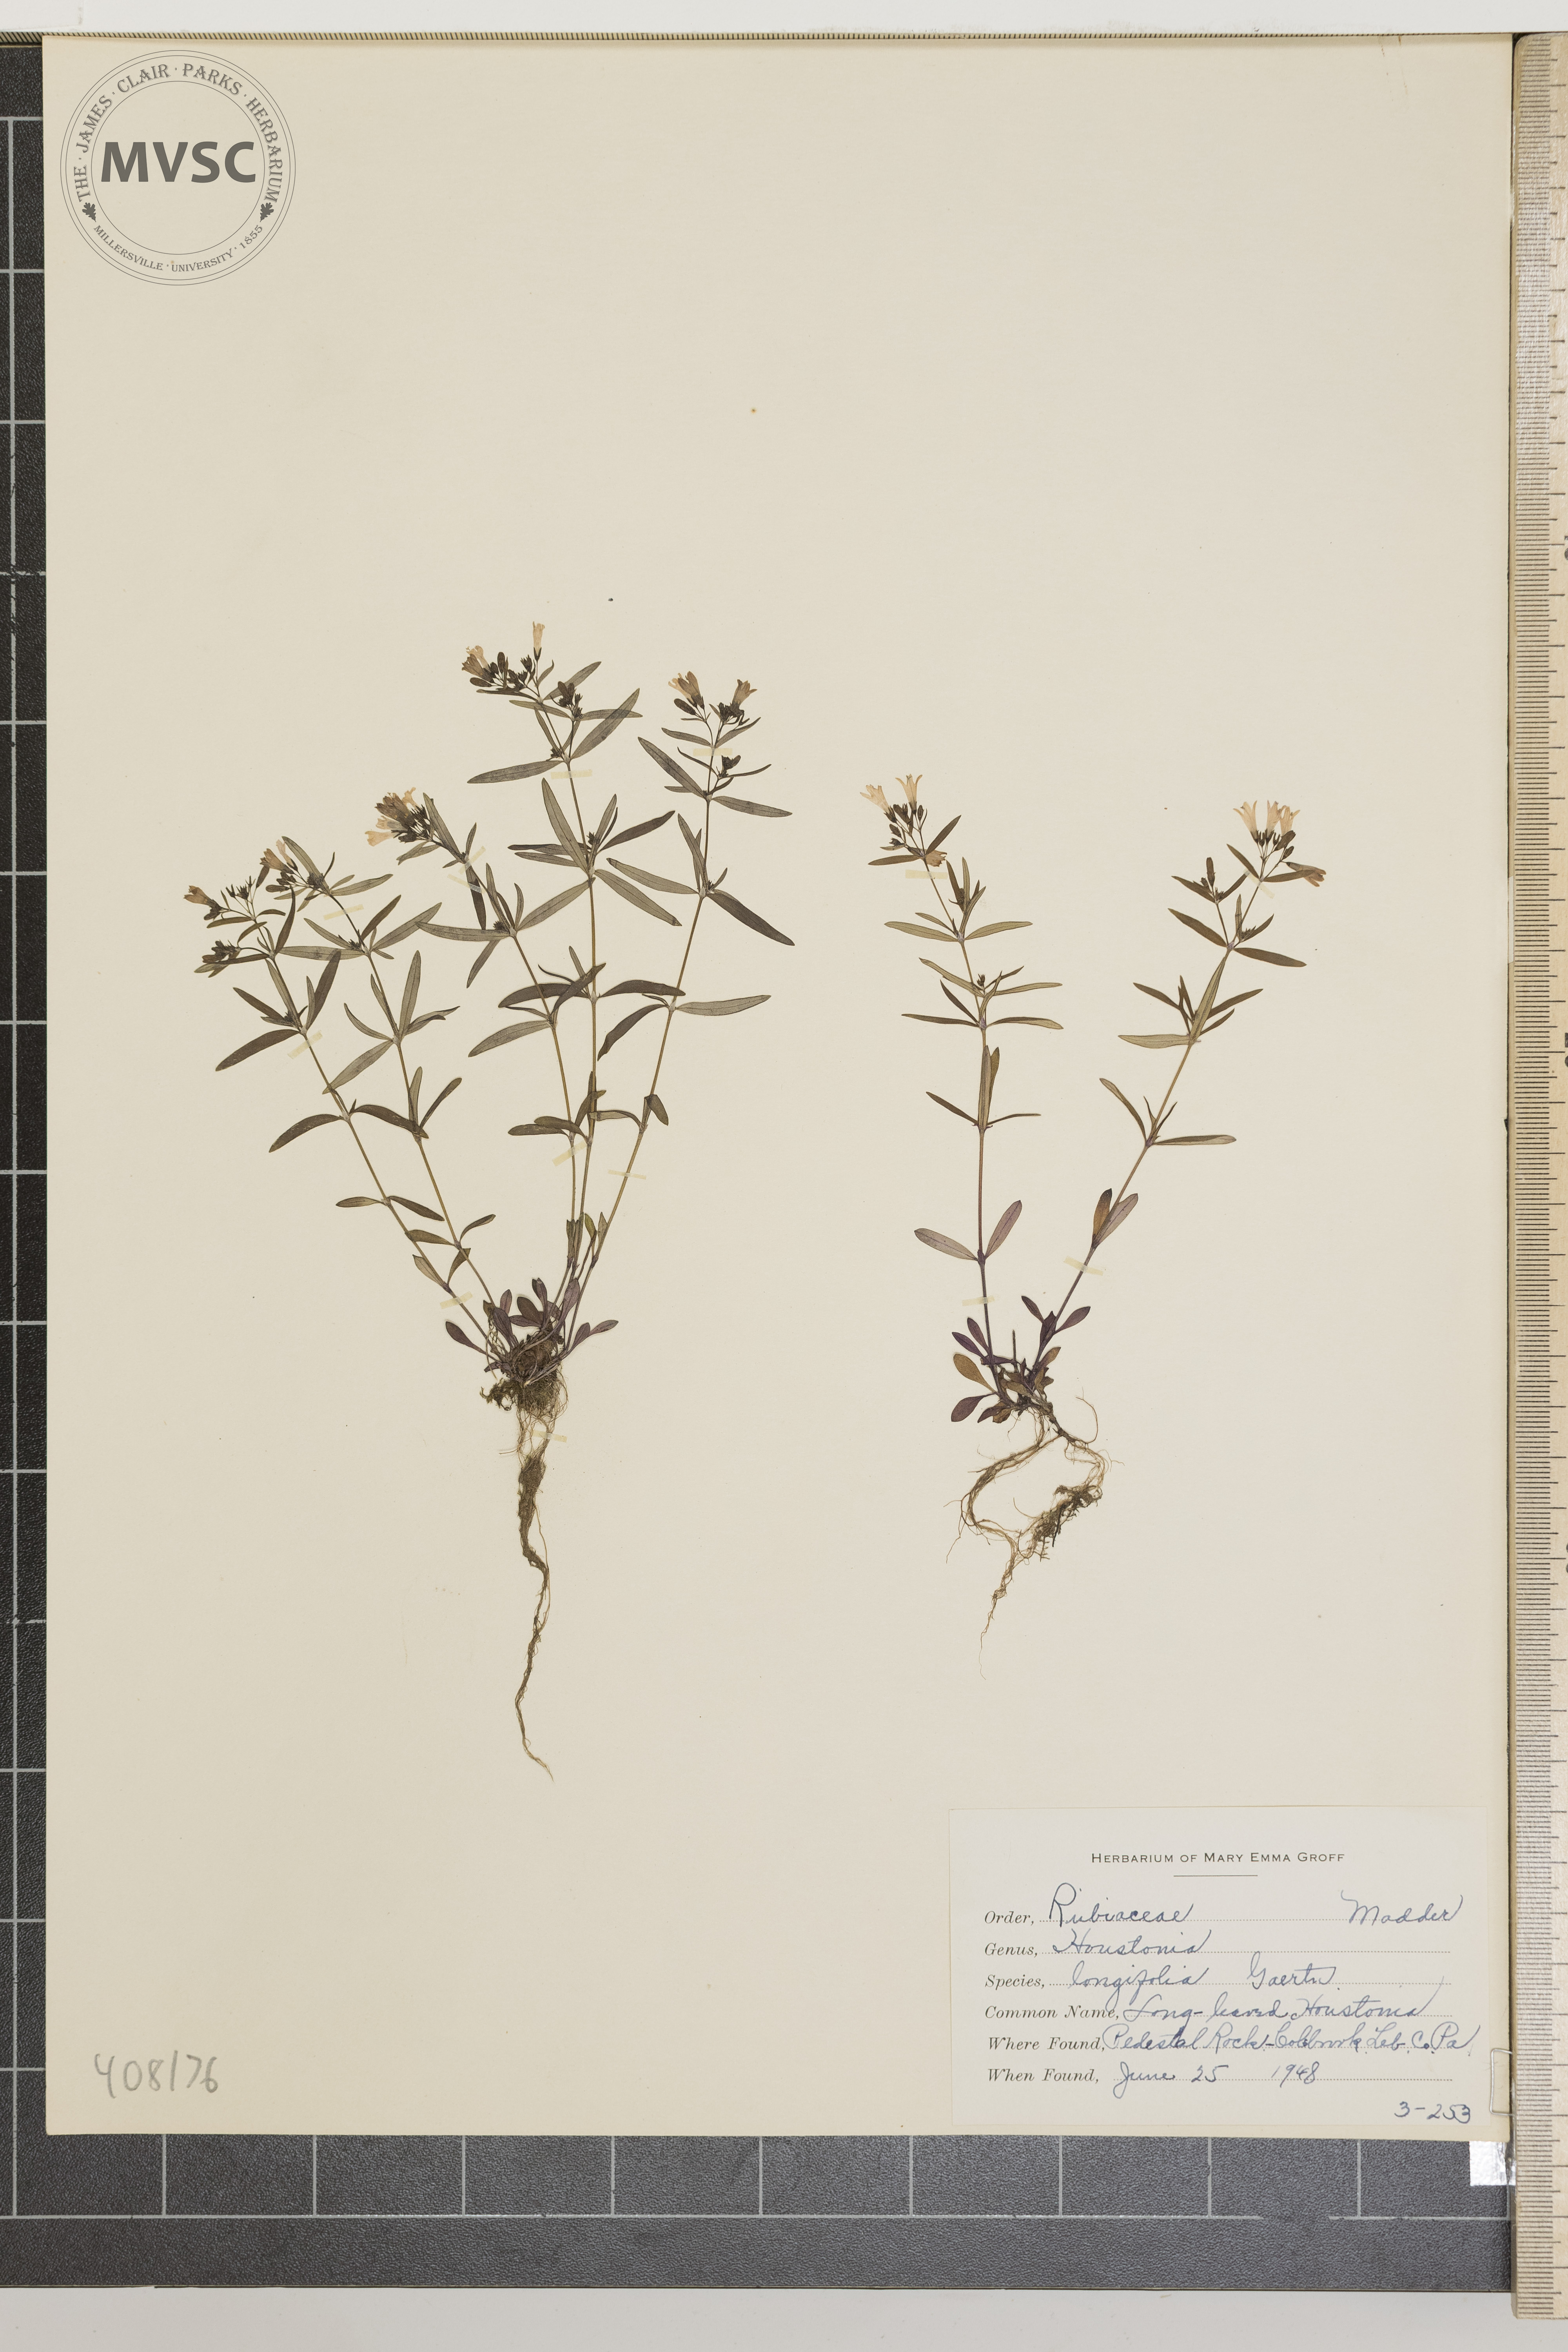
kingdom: Plantae
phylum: Tracheophyta
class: Magnoliopsida
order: Gentianales
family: Rubiaceae
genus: Houstonia
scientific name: Houstonia longifolia
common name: Long-leaved Houstonia
